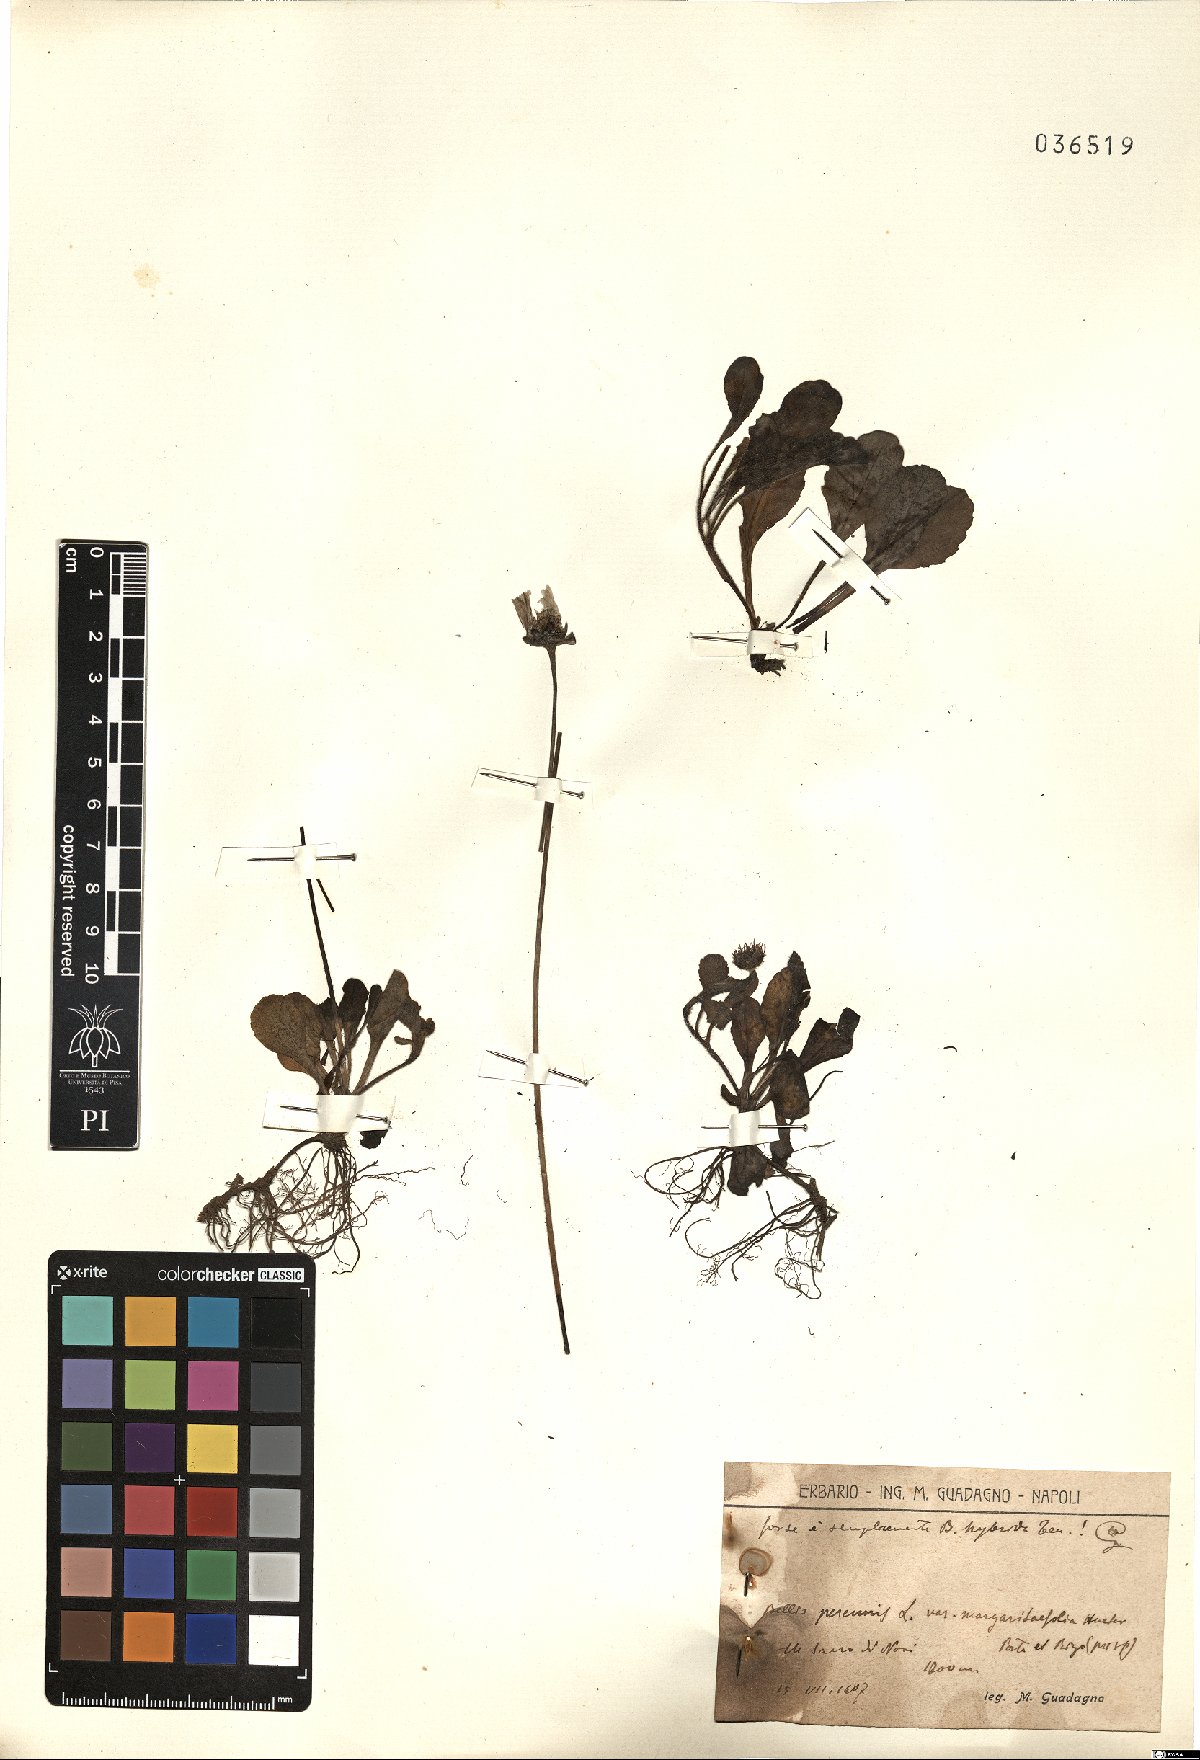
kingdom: Plantae
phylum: Tracheophyta
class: Magnoliopsida
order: Asterales
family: Asteraceae
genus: Bellis
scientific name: Bellis perennis
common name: Lawndaisy
